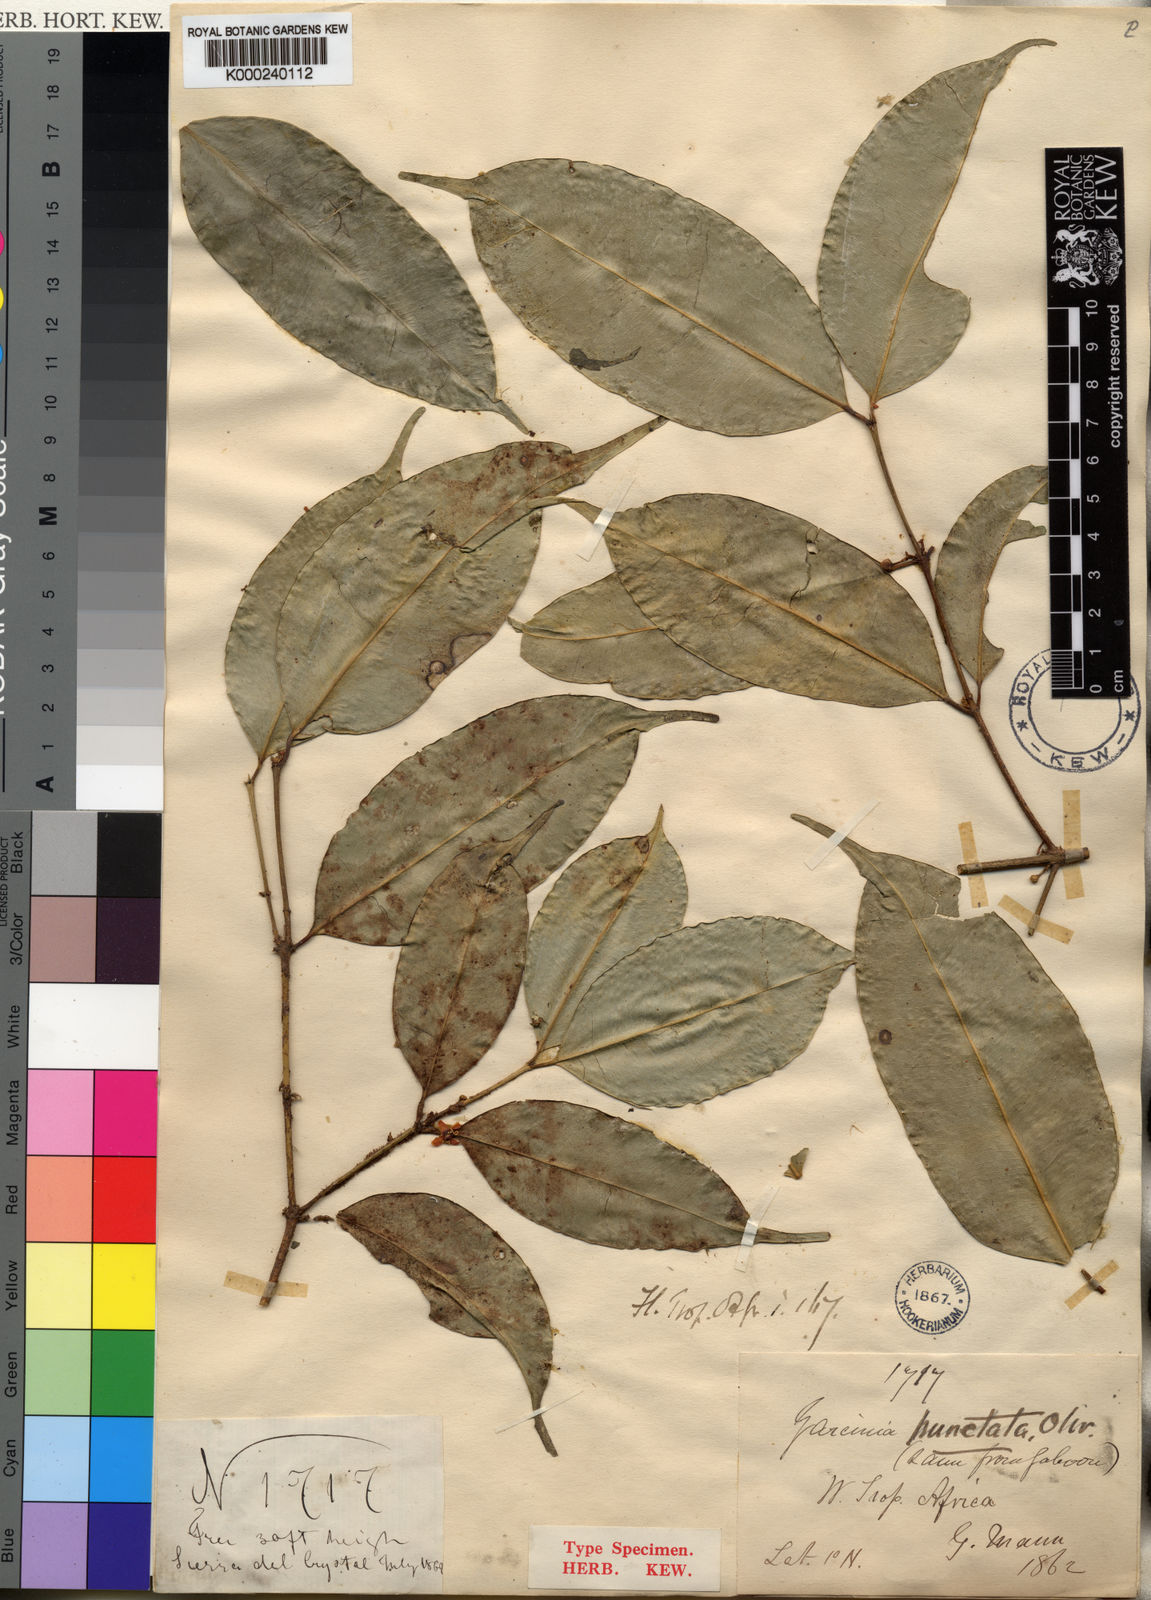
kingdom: Plantae
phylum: Tracheophyta
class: Magnoliopsida
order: Malpighiales
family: Clusiaceae
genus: Garcinia
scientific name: Garcinia punctata
